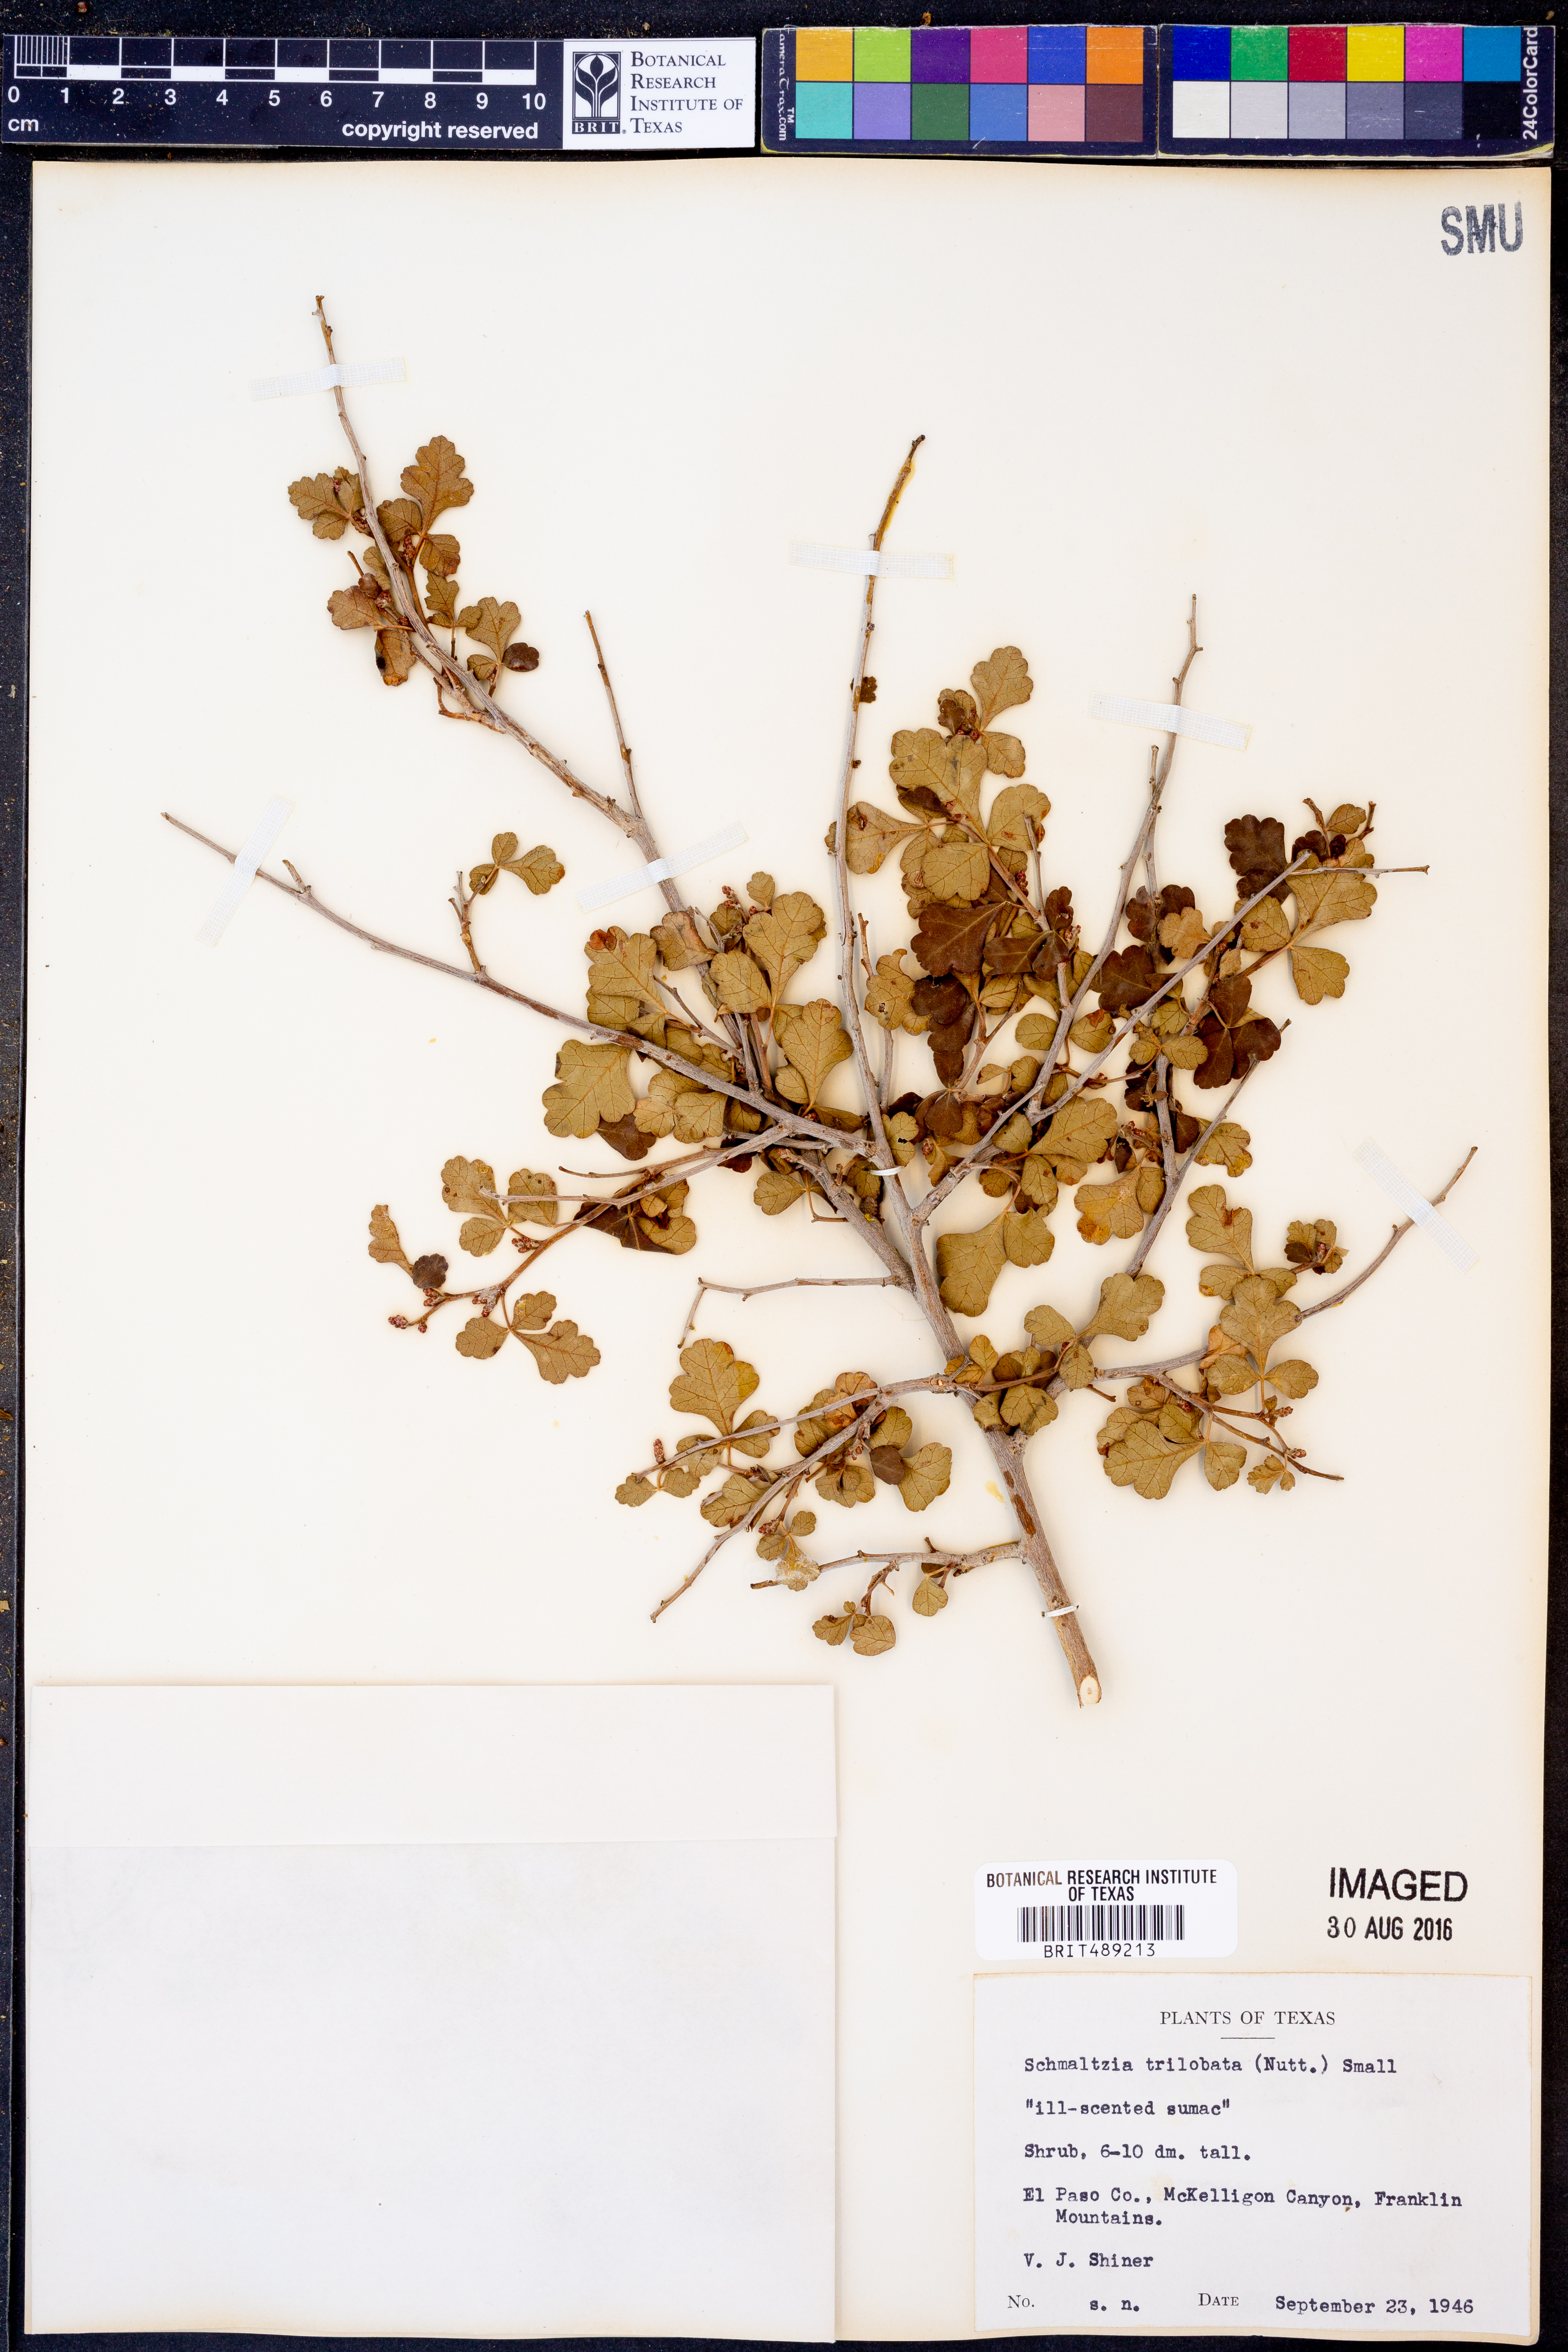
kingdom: Plantae
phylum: Tracheophyta
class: Magnoliopsida
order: Sapindales
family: Anacardiaceae
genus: Rhus
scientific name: Rhus trilobata
